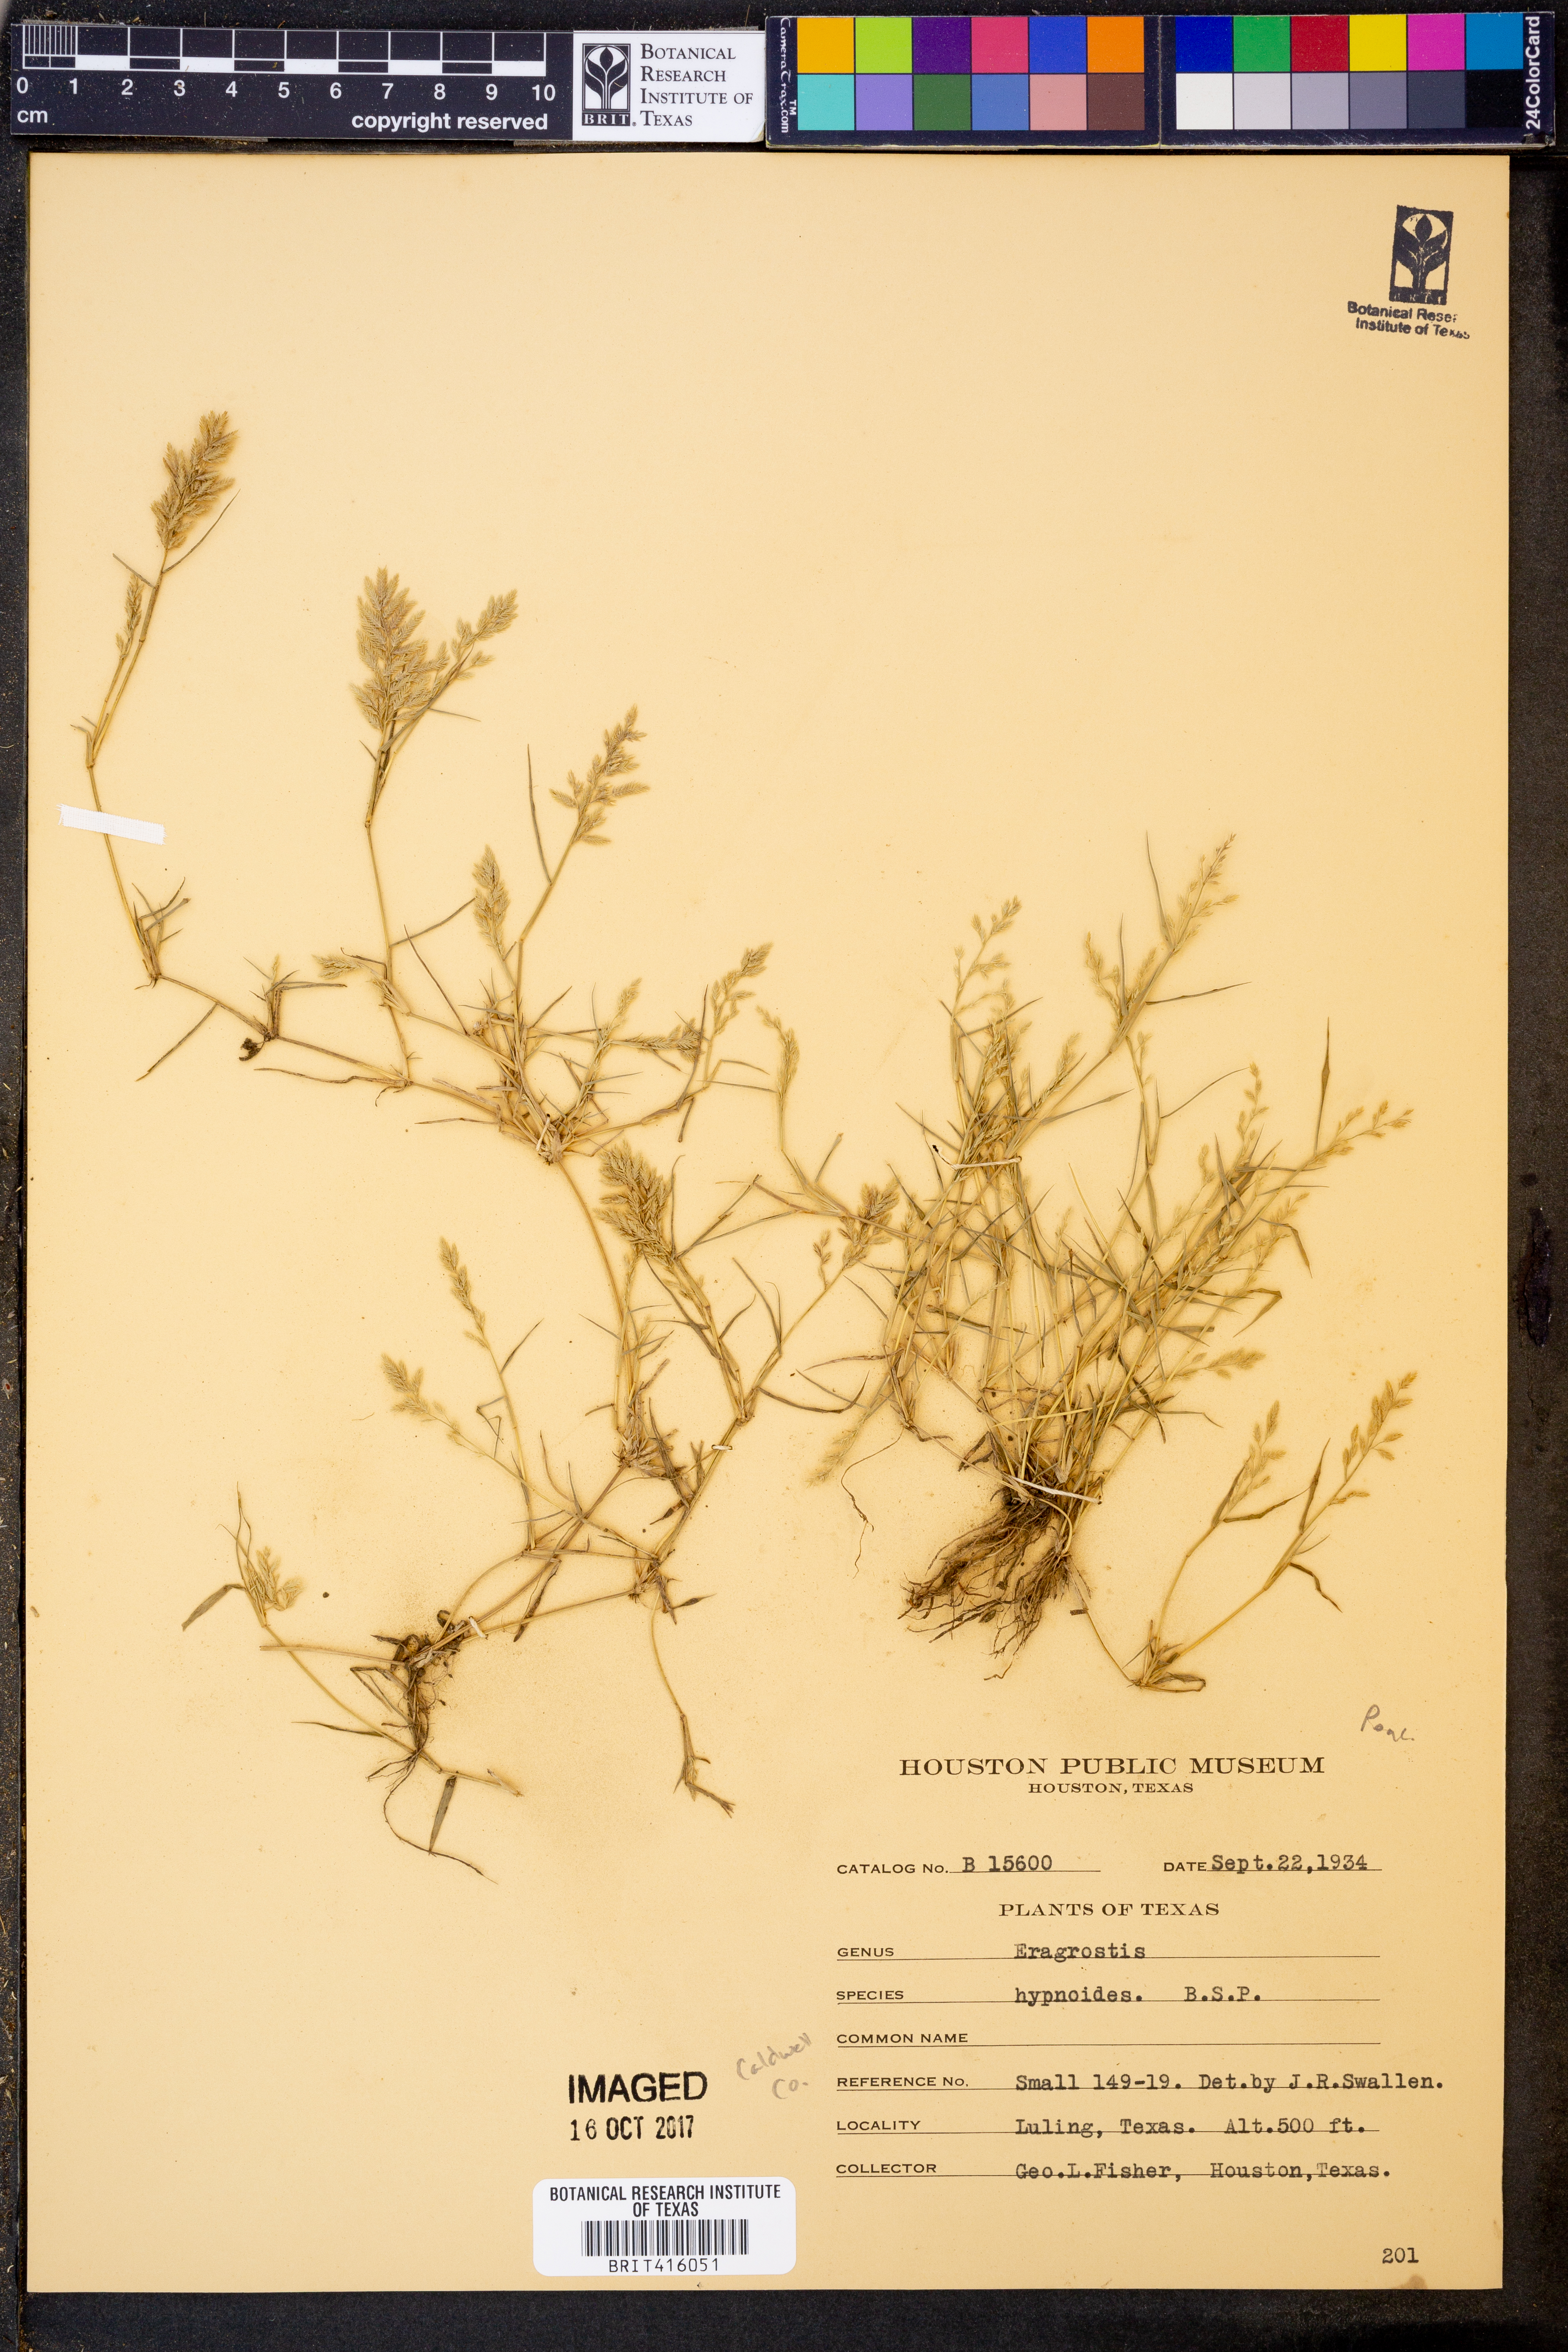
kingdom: Plantae
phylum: Tracheophyta
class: Liliopsida
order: Poales
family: Poaceae
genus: Eragrostis
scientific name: Eragrostis hypnoides
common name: Creeping love grass
